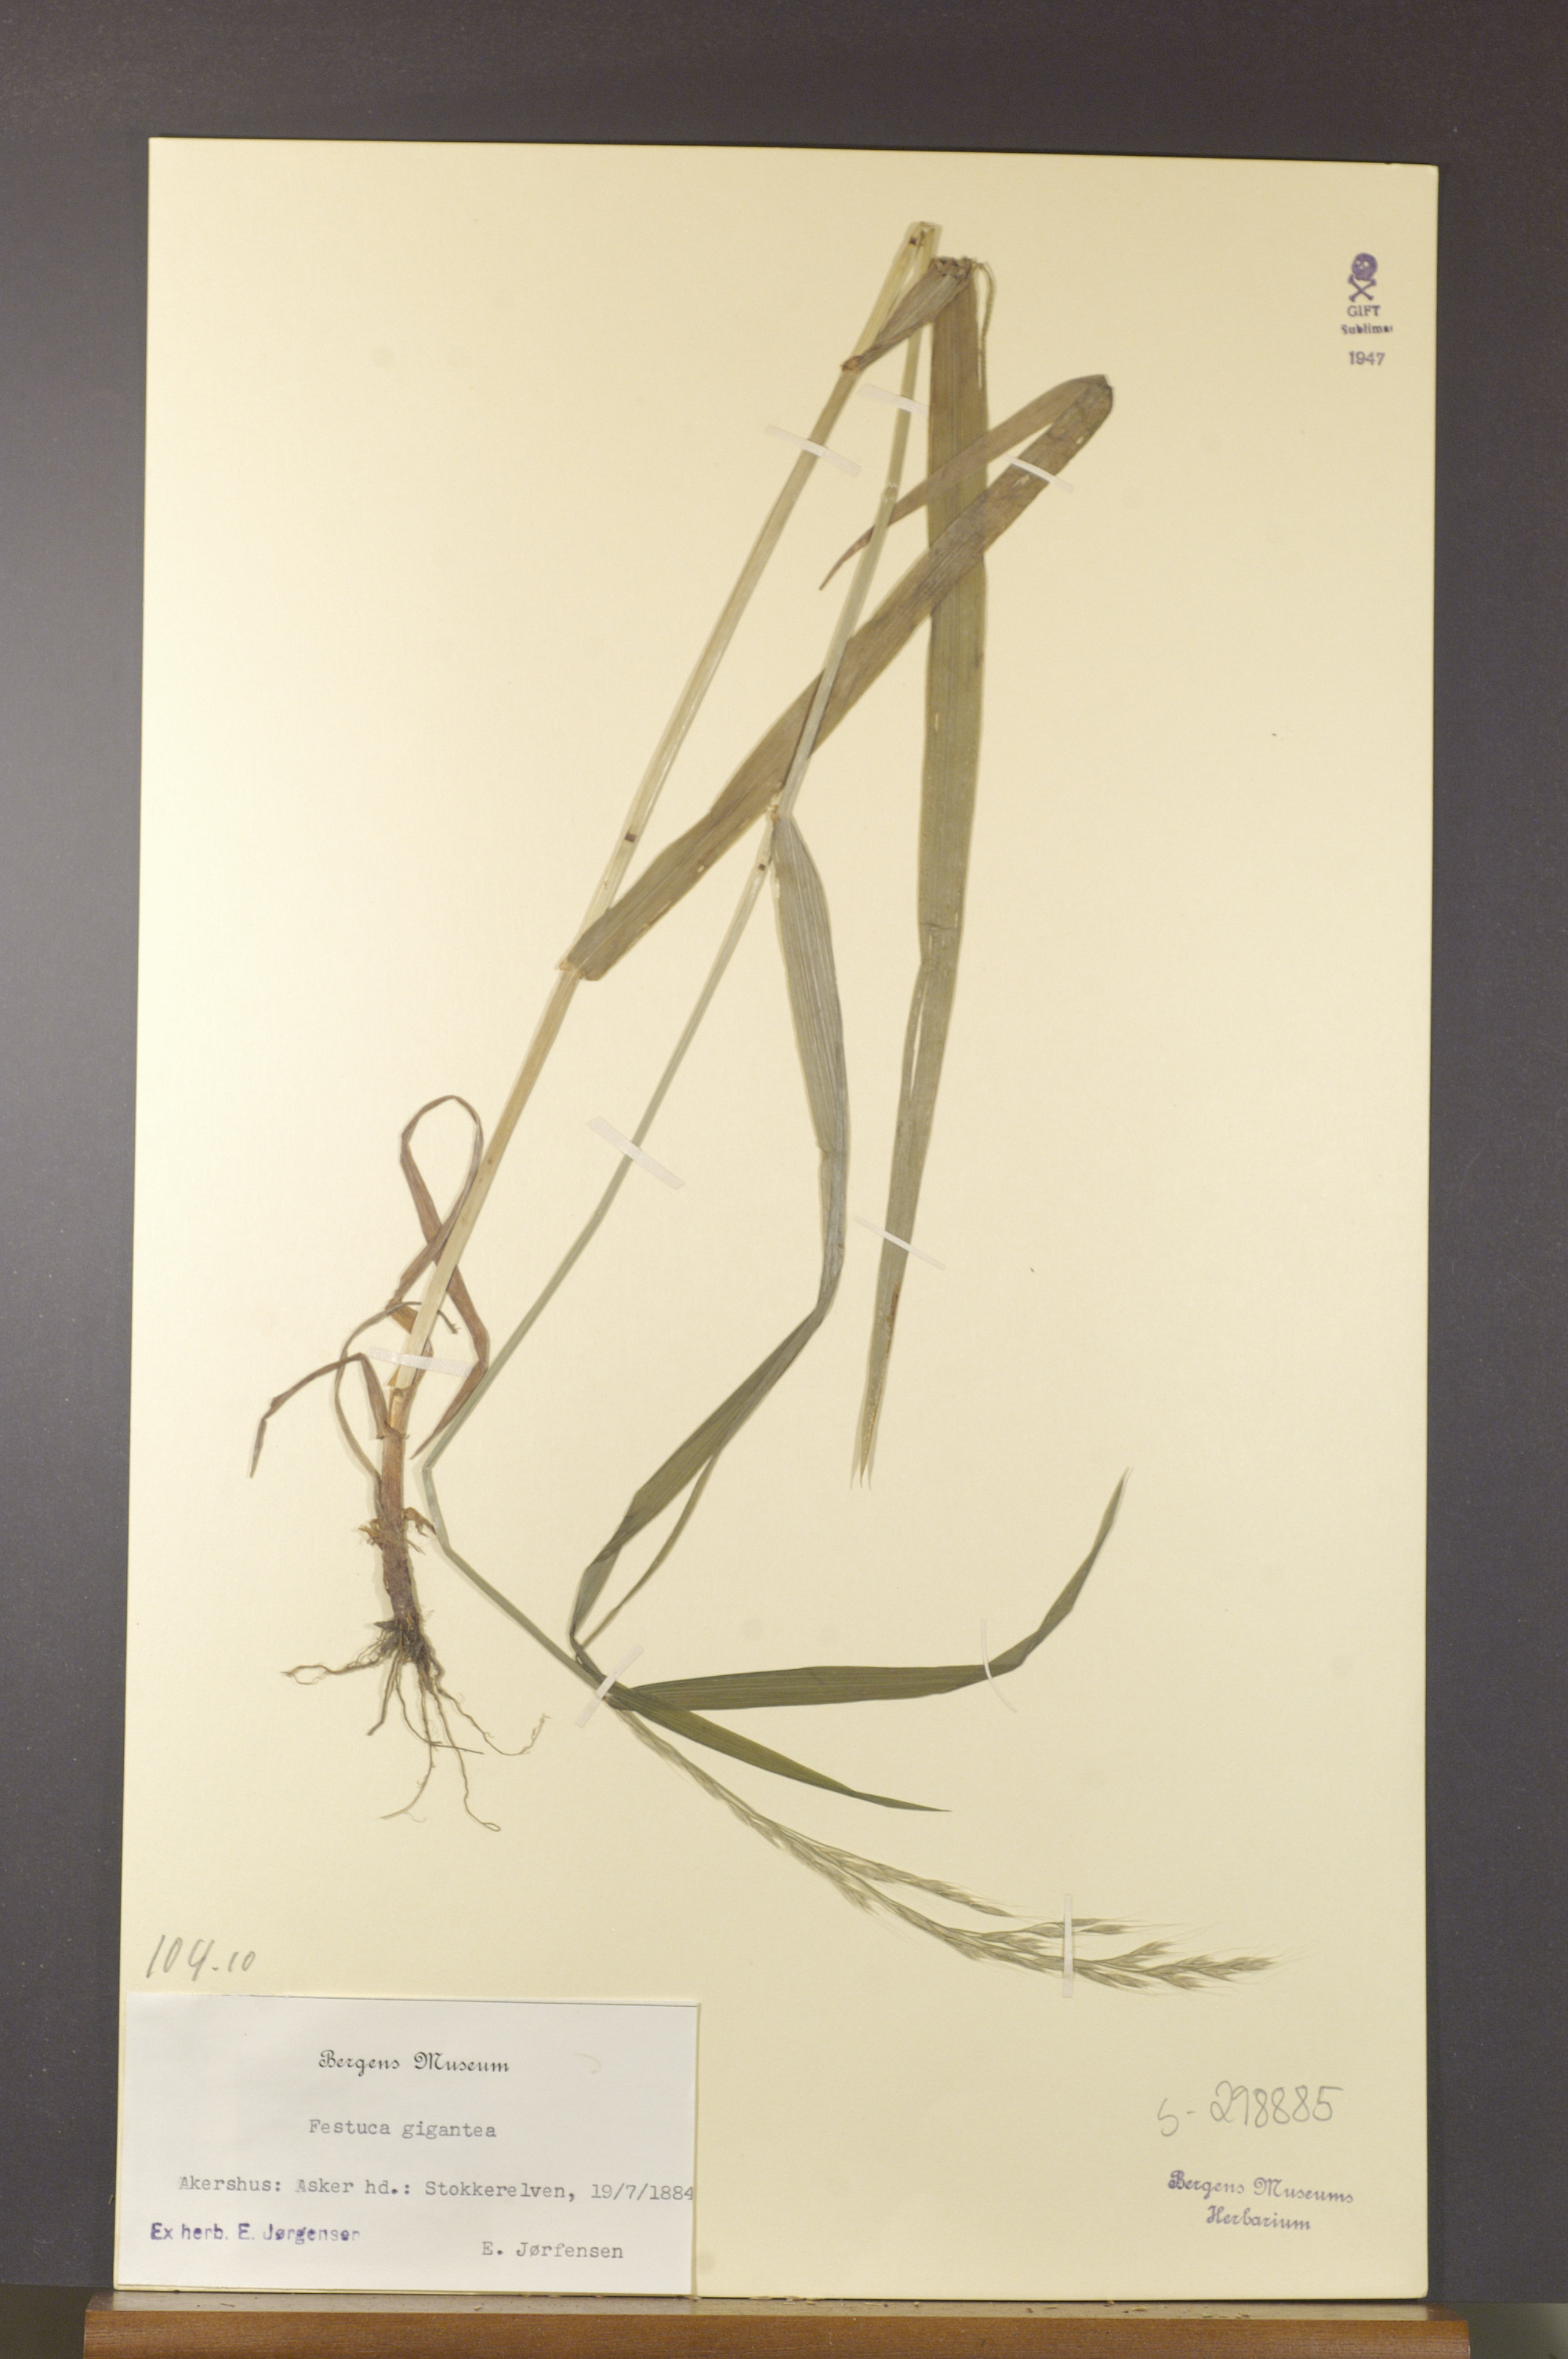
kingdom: Plantae
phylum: Tracheophyta
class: Liliopsida
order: Poales
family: Poaceae
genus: Lolium
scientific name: Lolium giganteum
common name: Giant fescue
